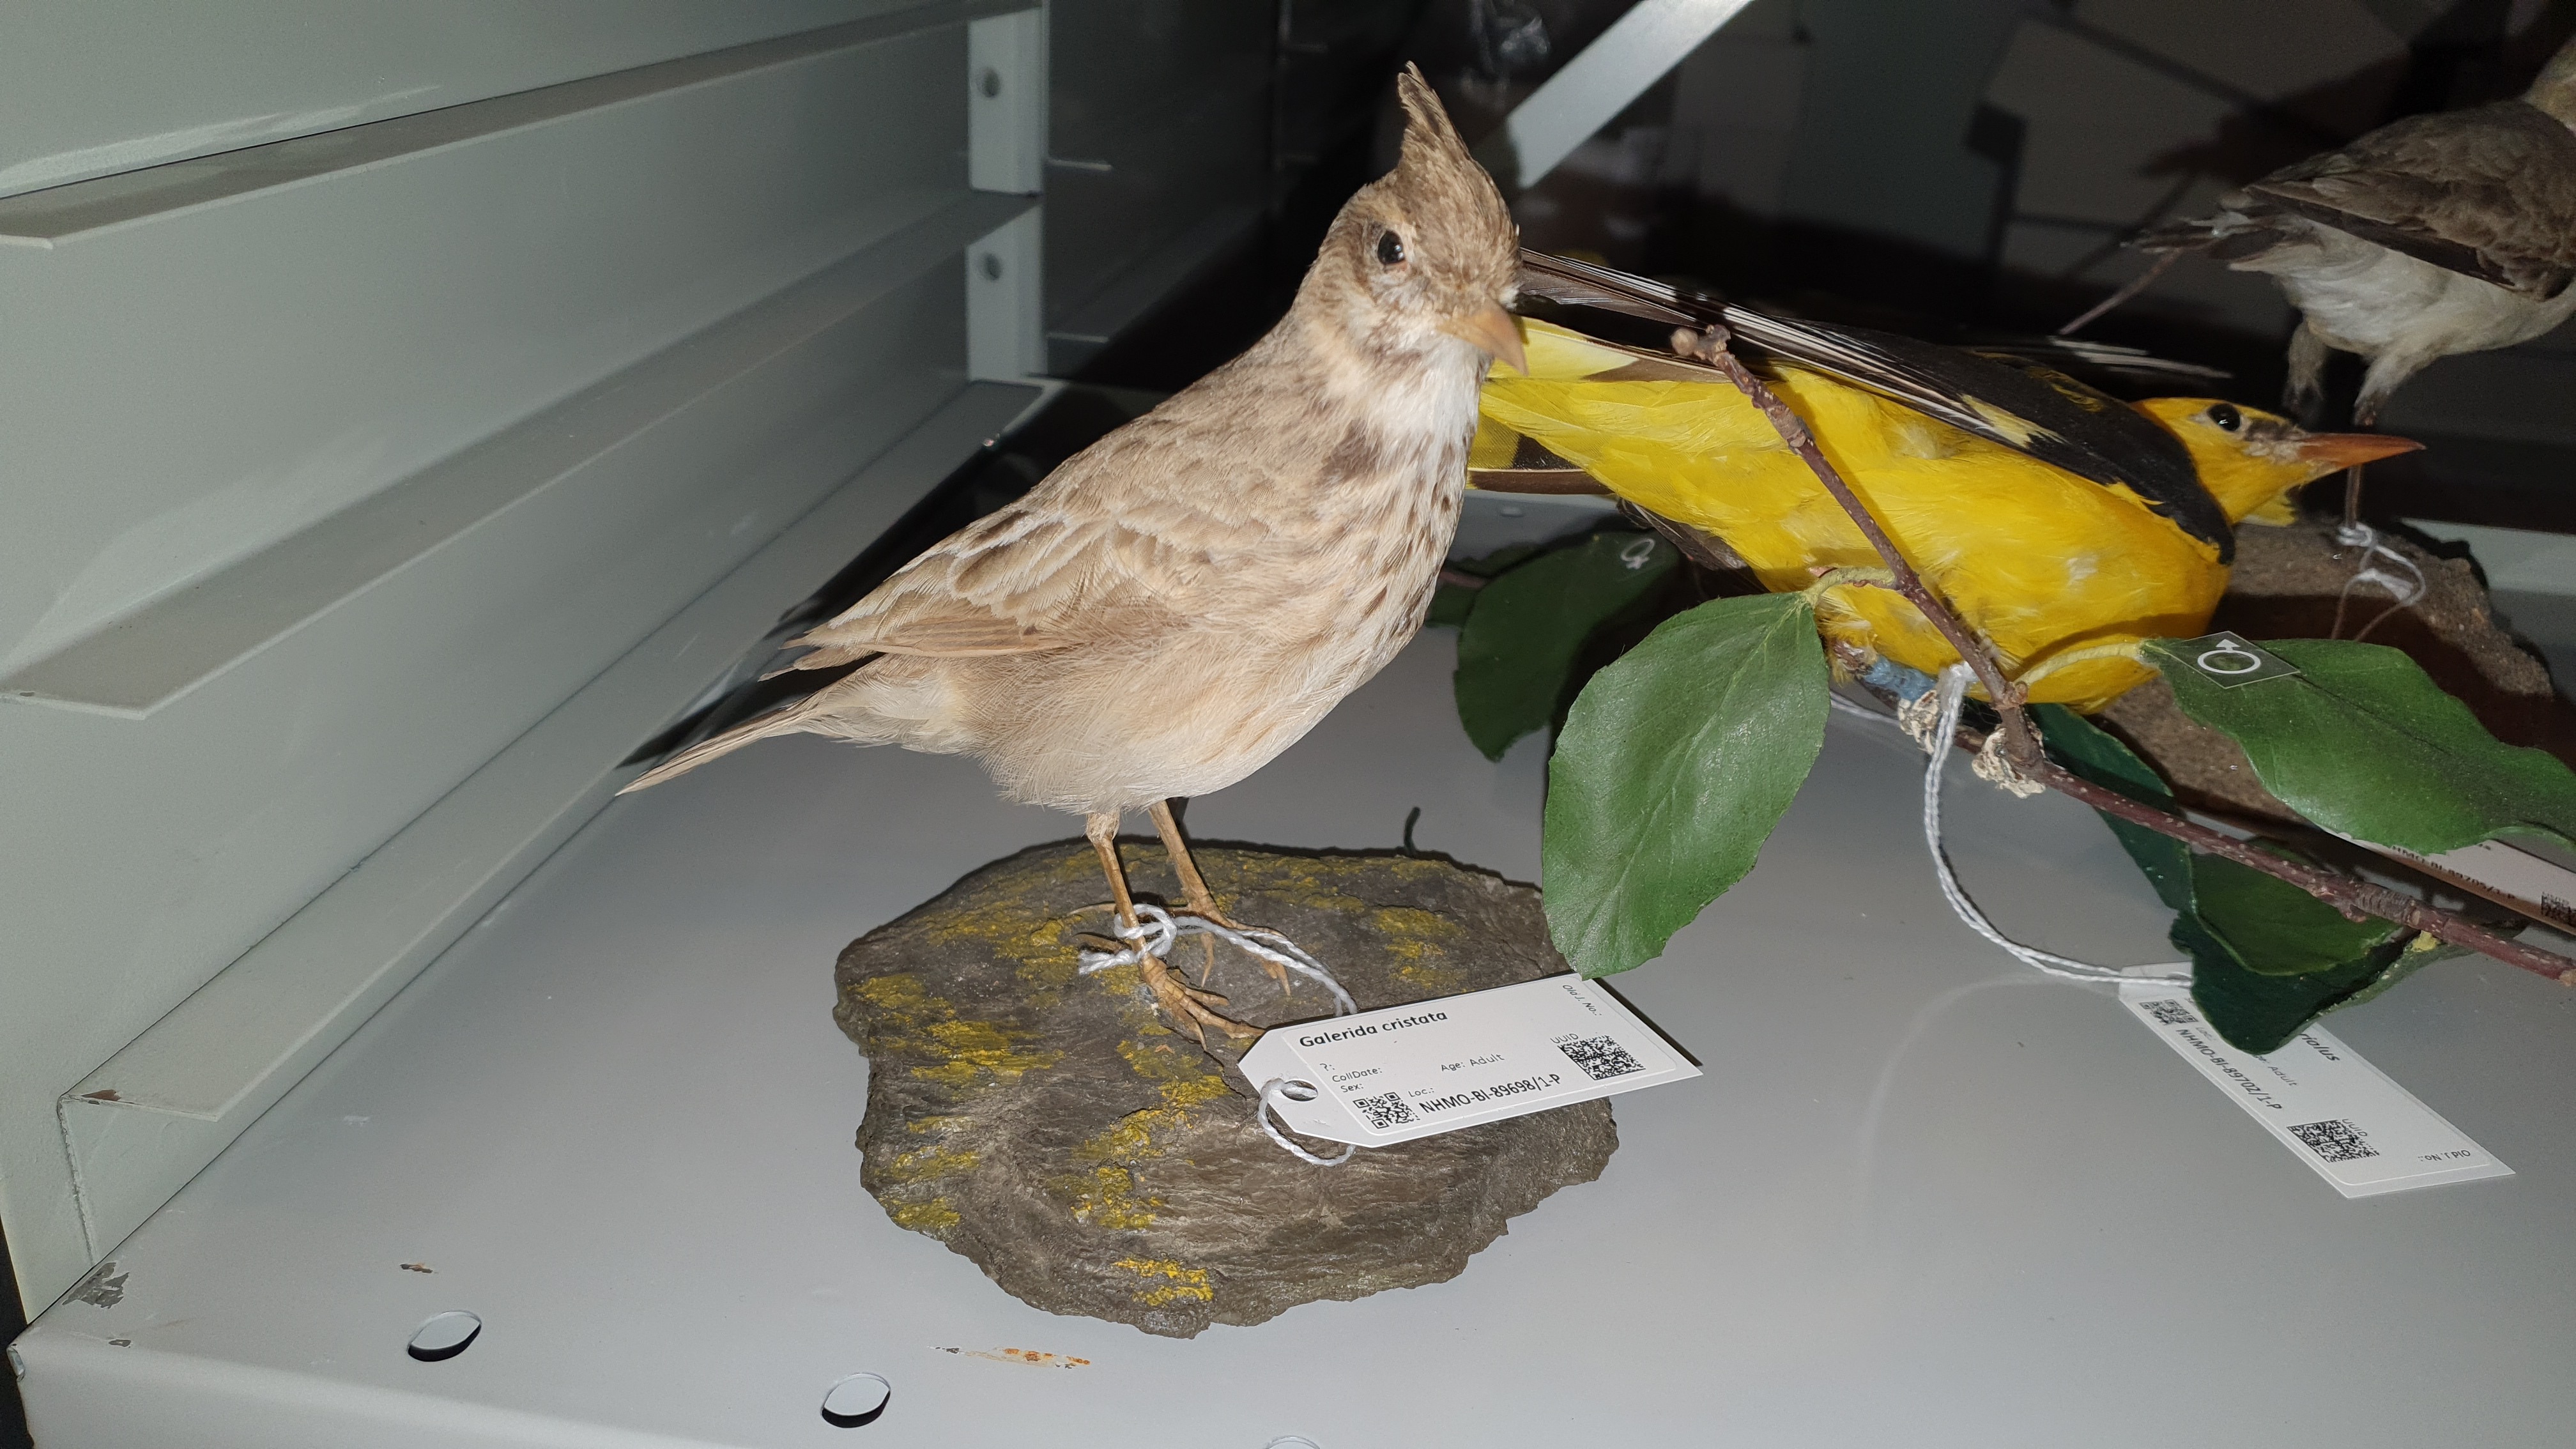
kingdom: Animalia
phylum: Chordata
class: Aves
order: Passeriformes
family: Alaudidae
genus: Galerida
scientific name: Galerida cristata
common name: Crested lark
